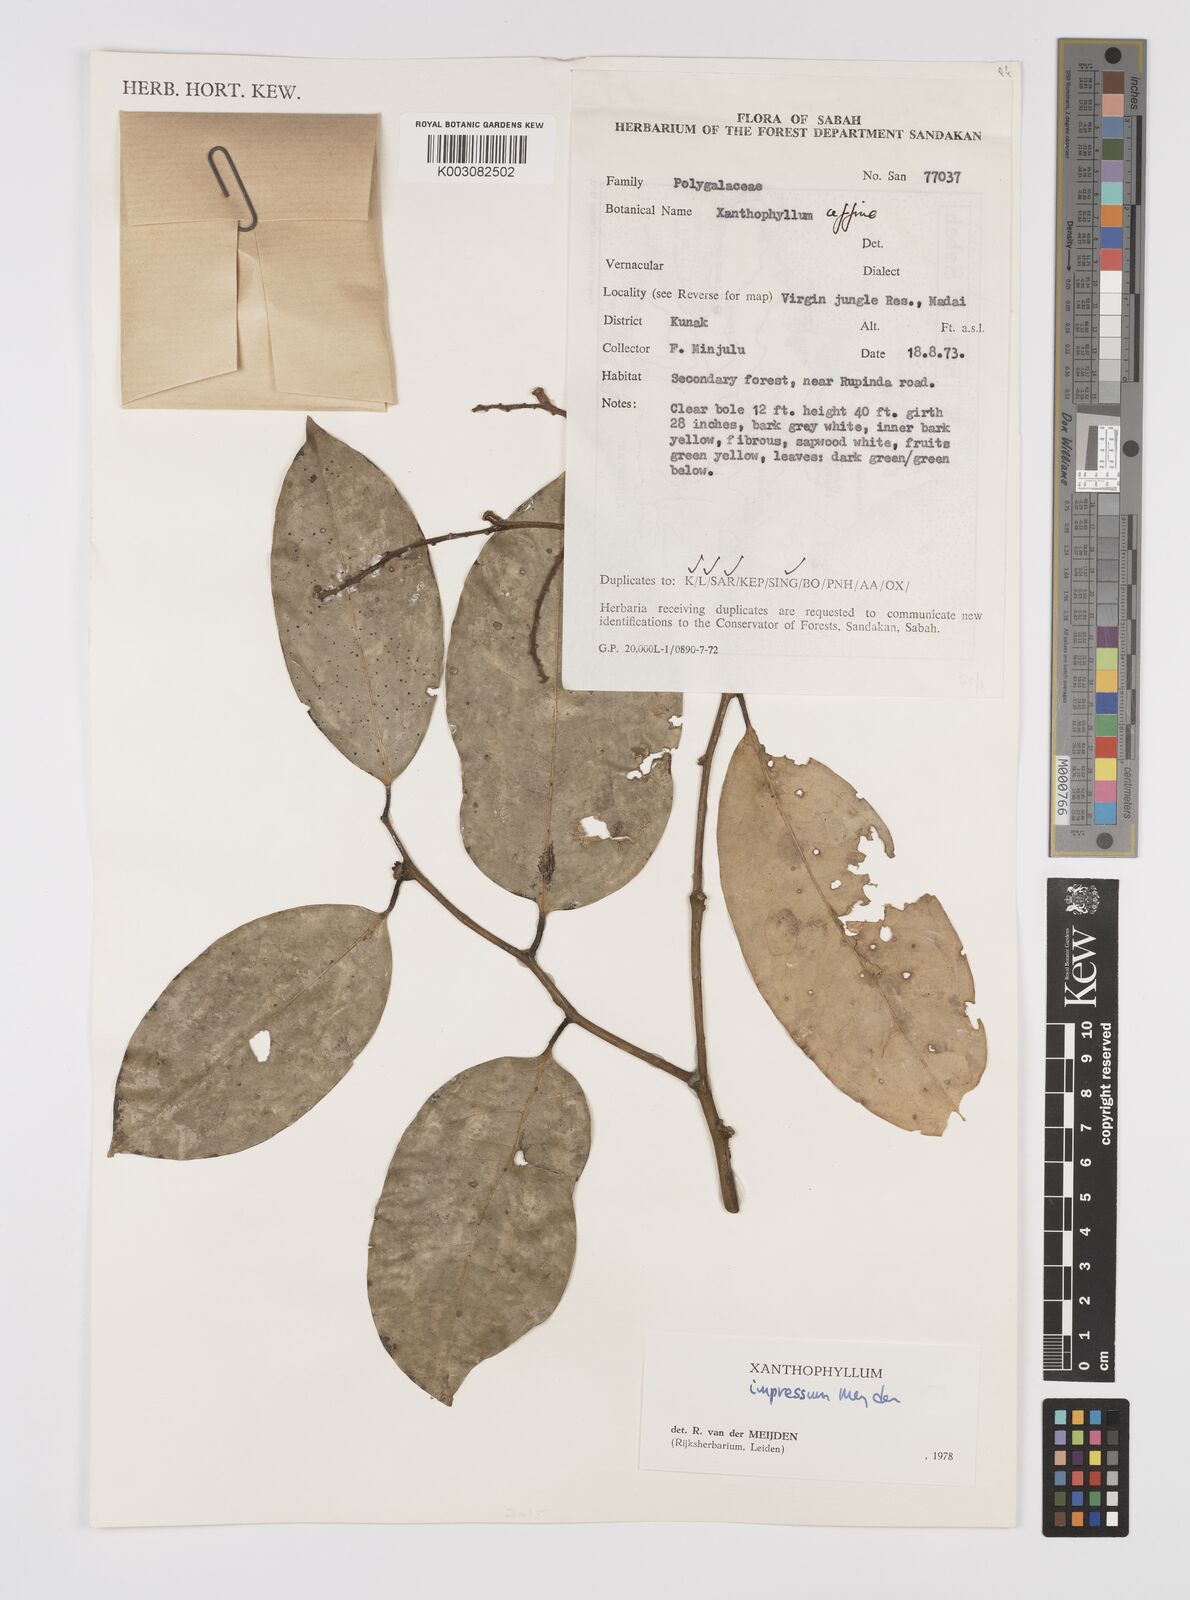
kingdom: Plantae
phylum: Tracheophyta
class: Magnoliopsida
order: Fabales
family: Polygalaceae
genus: Xanthophyllum
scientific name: Xanthophyllum impressum
